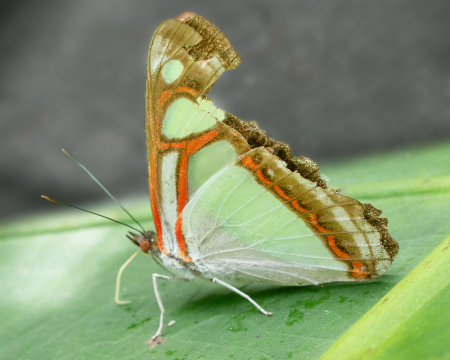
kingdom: Animalia
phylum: Arthropoda
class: Insecta
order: Lepidoptera
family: Nymphalidae
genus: Pyrrhogyra
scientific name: Pyrrhogyra edocla
